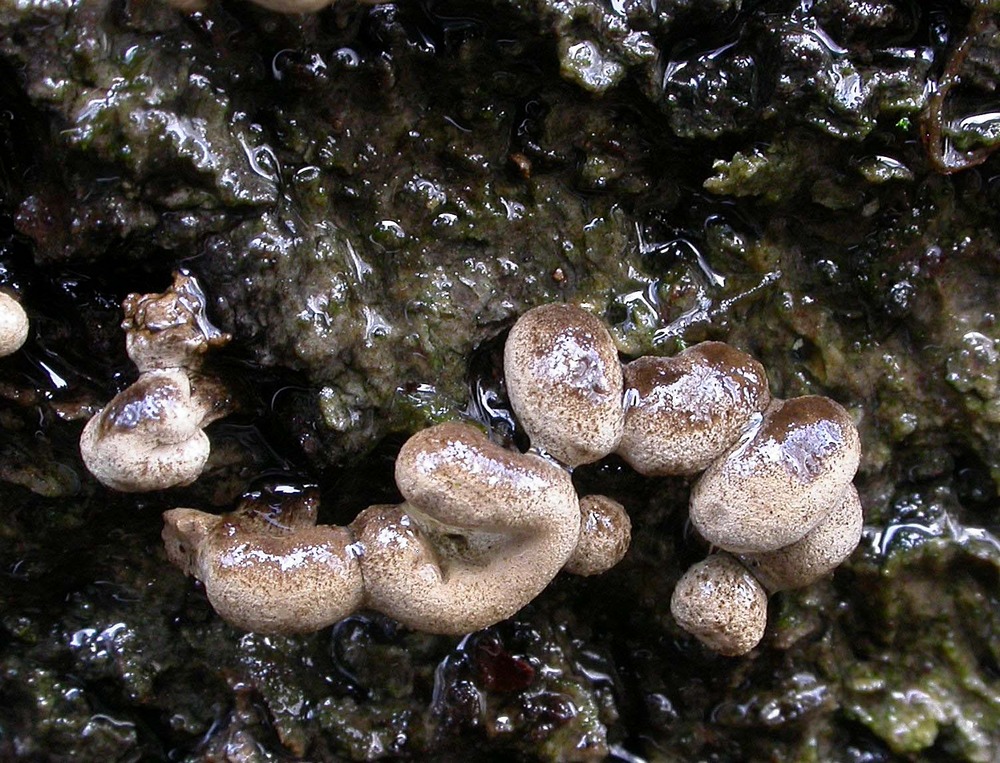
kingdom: Fungi
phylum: Basidiomycota
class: Atractiellomycetes
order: Atractiellales
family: Phleogenaceae
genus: Phleogena
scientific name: Phleogena faginea
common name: pudderkølle
